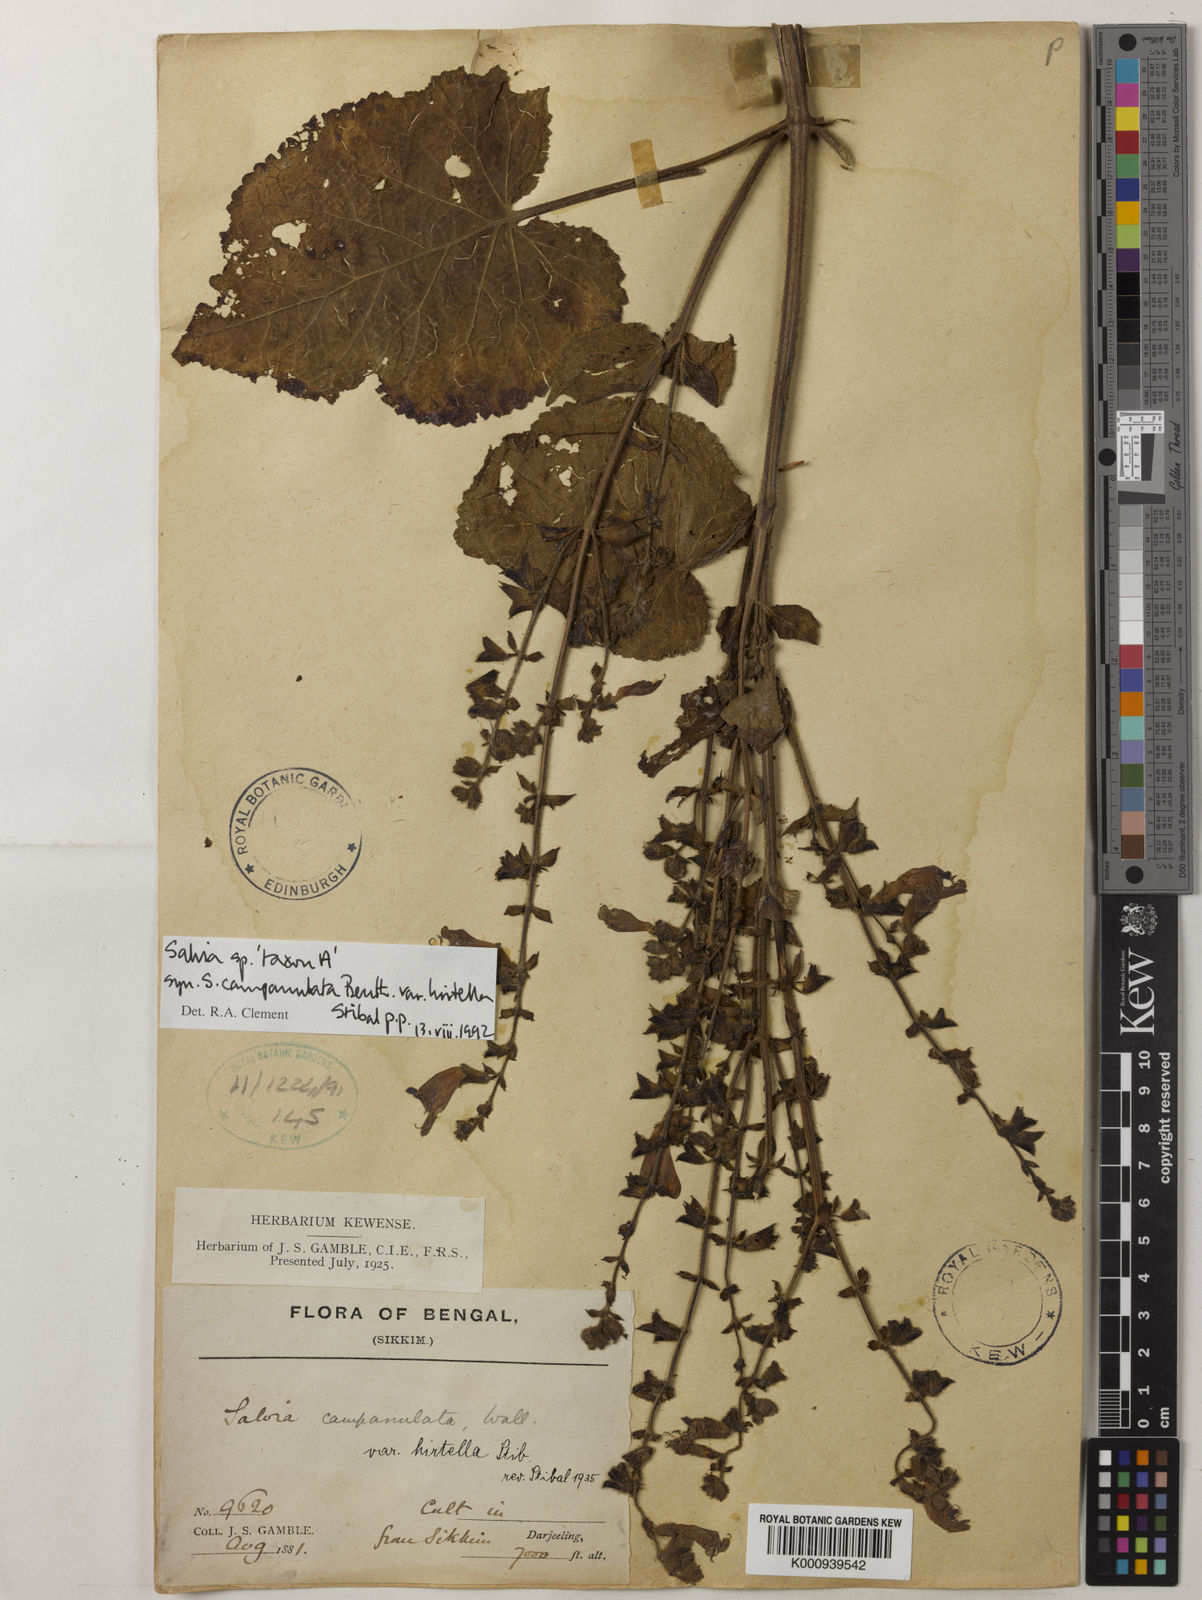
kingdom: Plantae
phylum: Tracheophyta
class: Magnoliopsida
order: Lamiales
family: Lamiaceae
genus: Salvia
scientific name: Salvia campanulata
